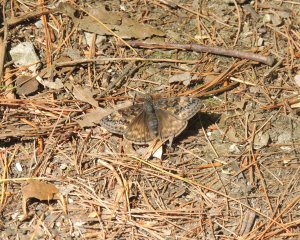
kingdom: Animalia
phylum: Arthropoda
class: Insecta
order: Lepidoptera
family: Hesperiidae
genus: Gesta
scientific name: Gesta
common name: Juvenal's Duskywing
